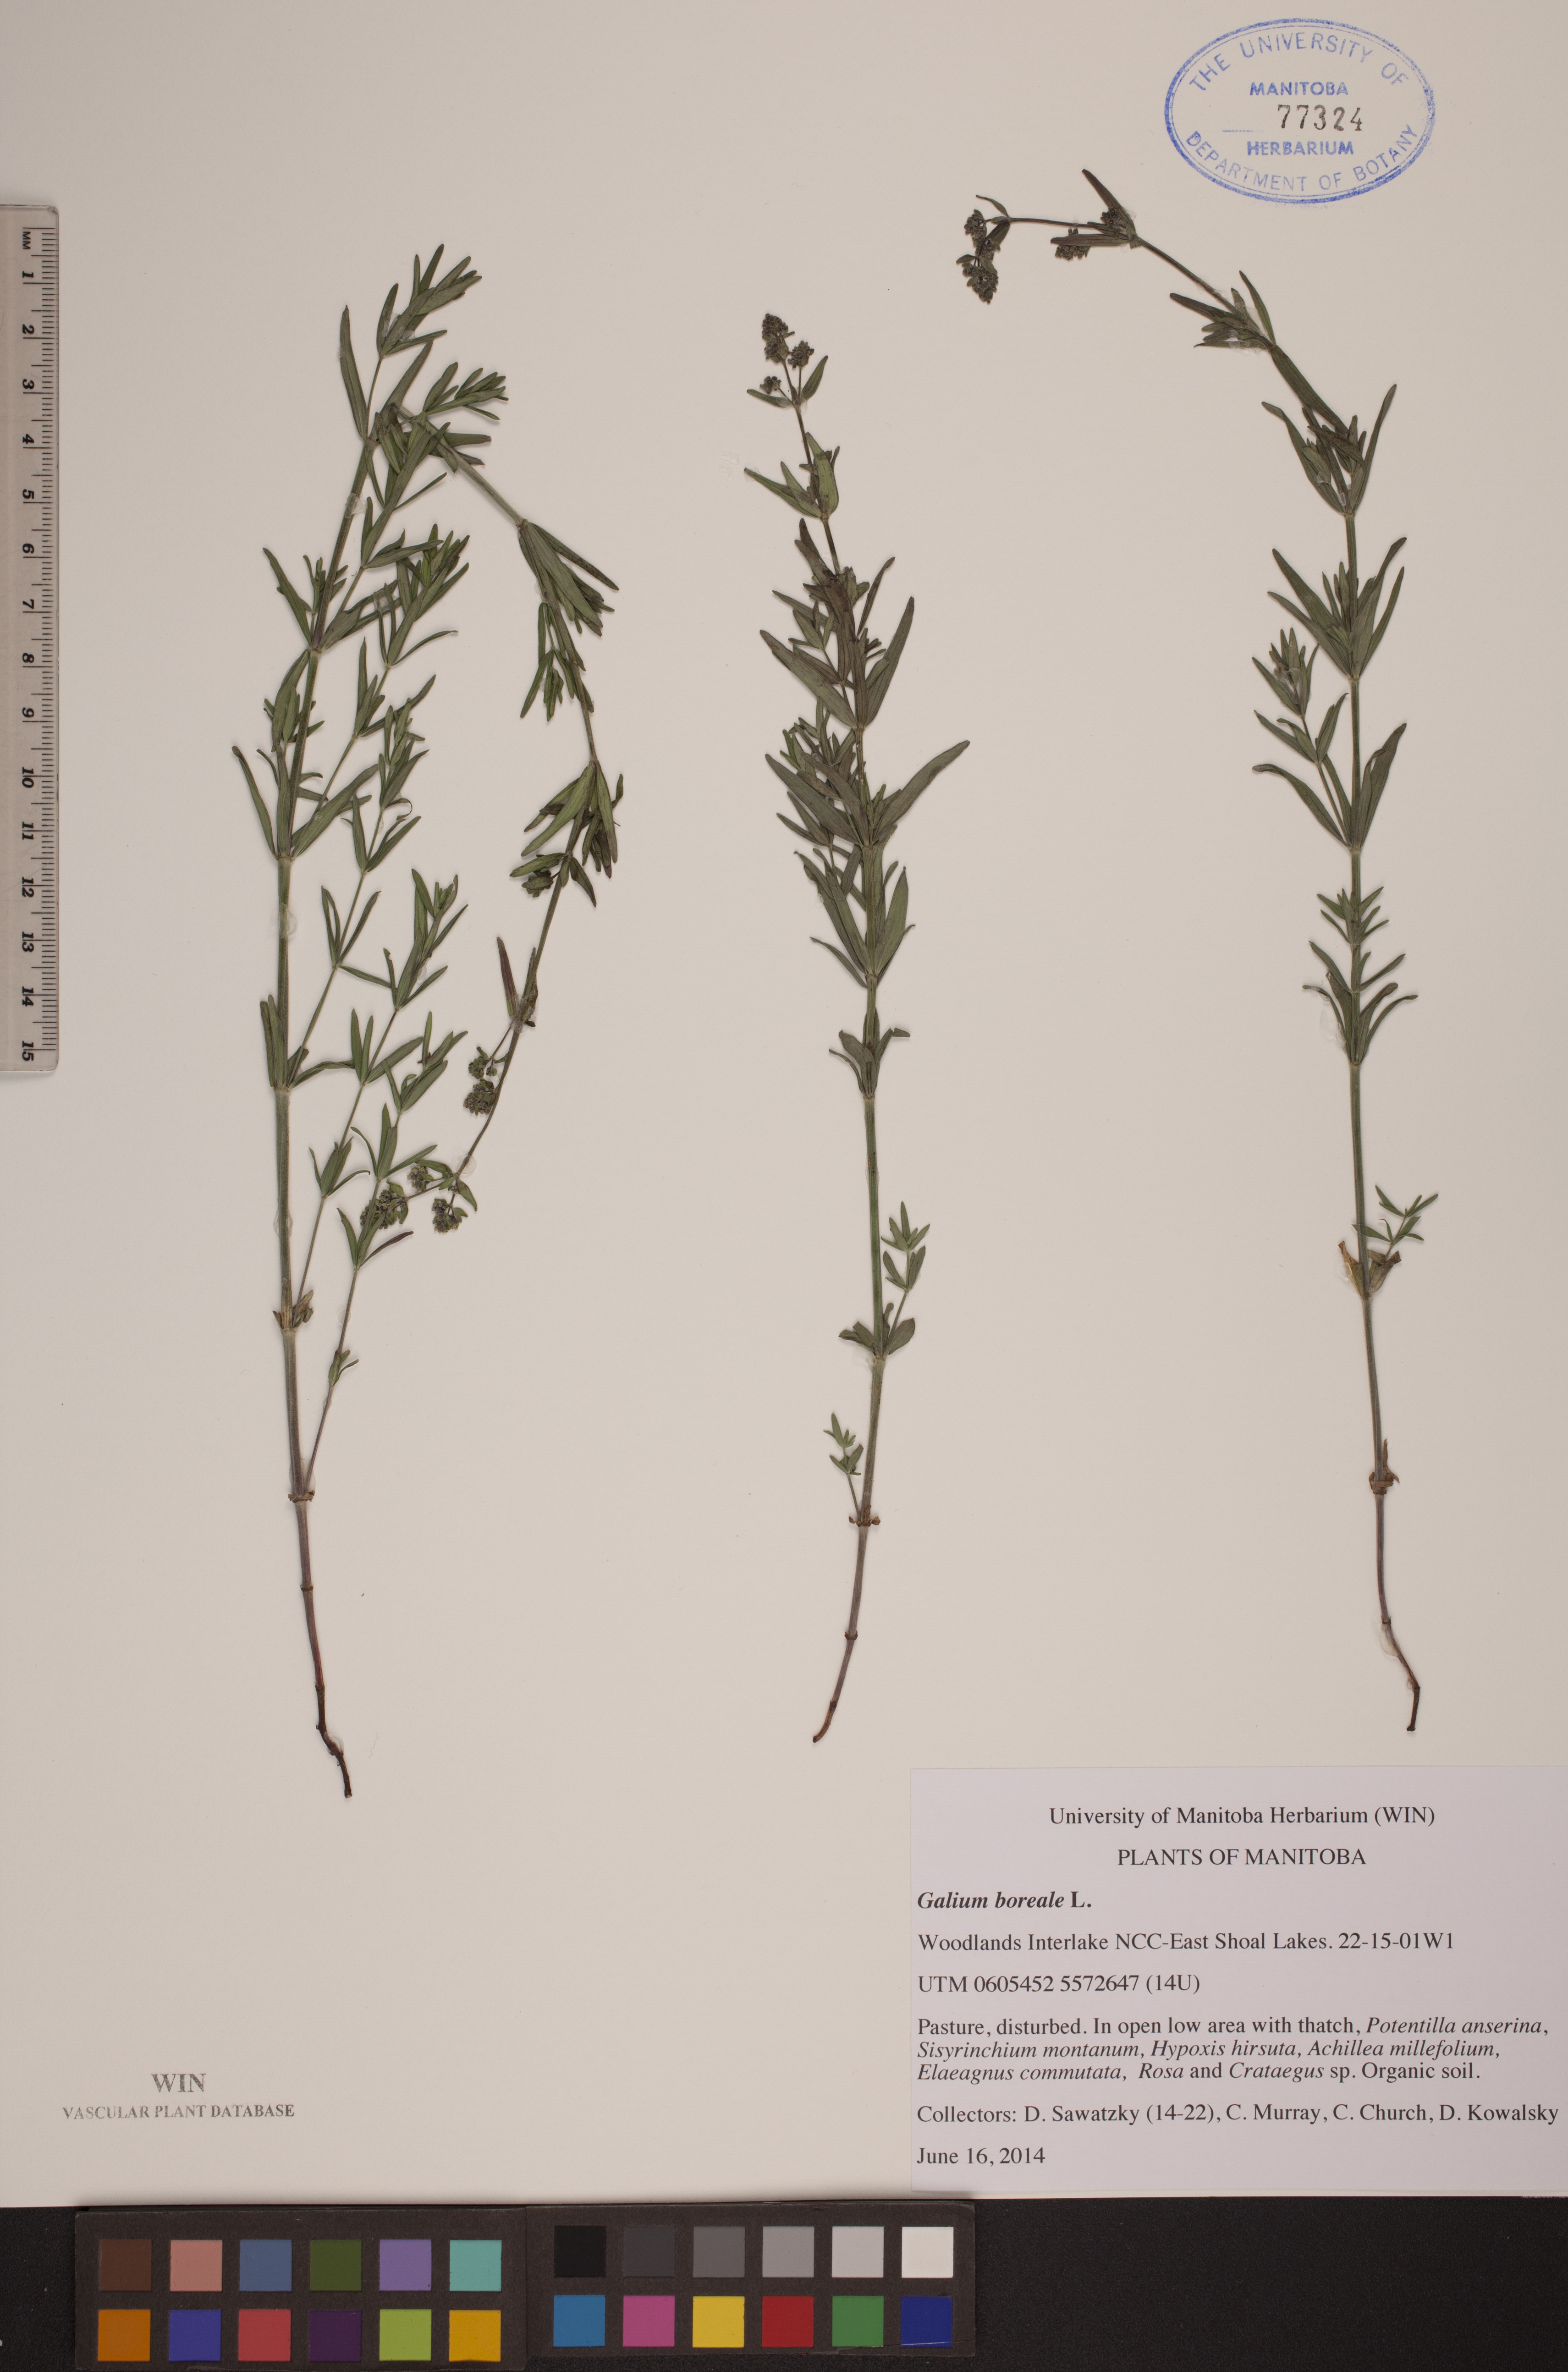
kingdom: Plantae
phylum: Tracheophyta
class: Magnoliopsida
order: Gentianales
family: Rubiaceae
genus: Galium
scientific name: Galium boreale
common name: Northern bedstraw
